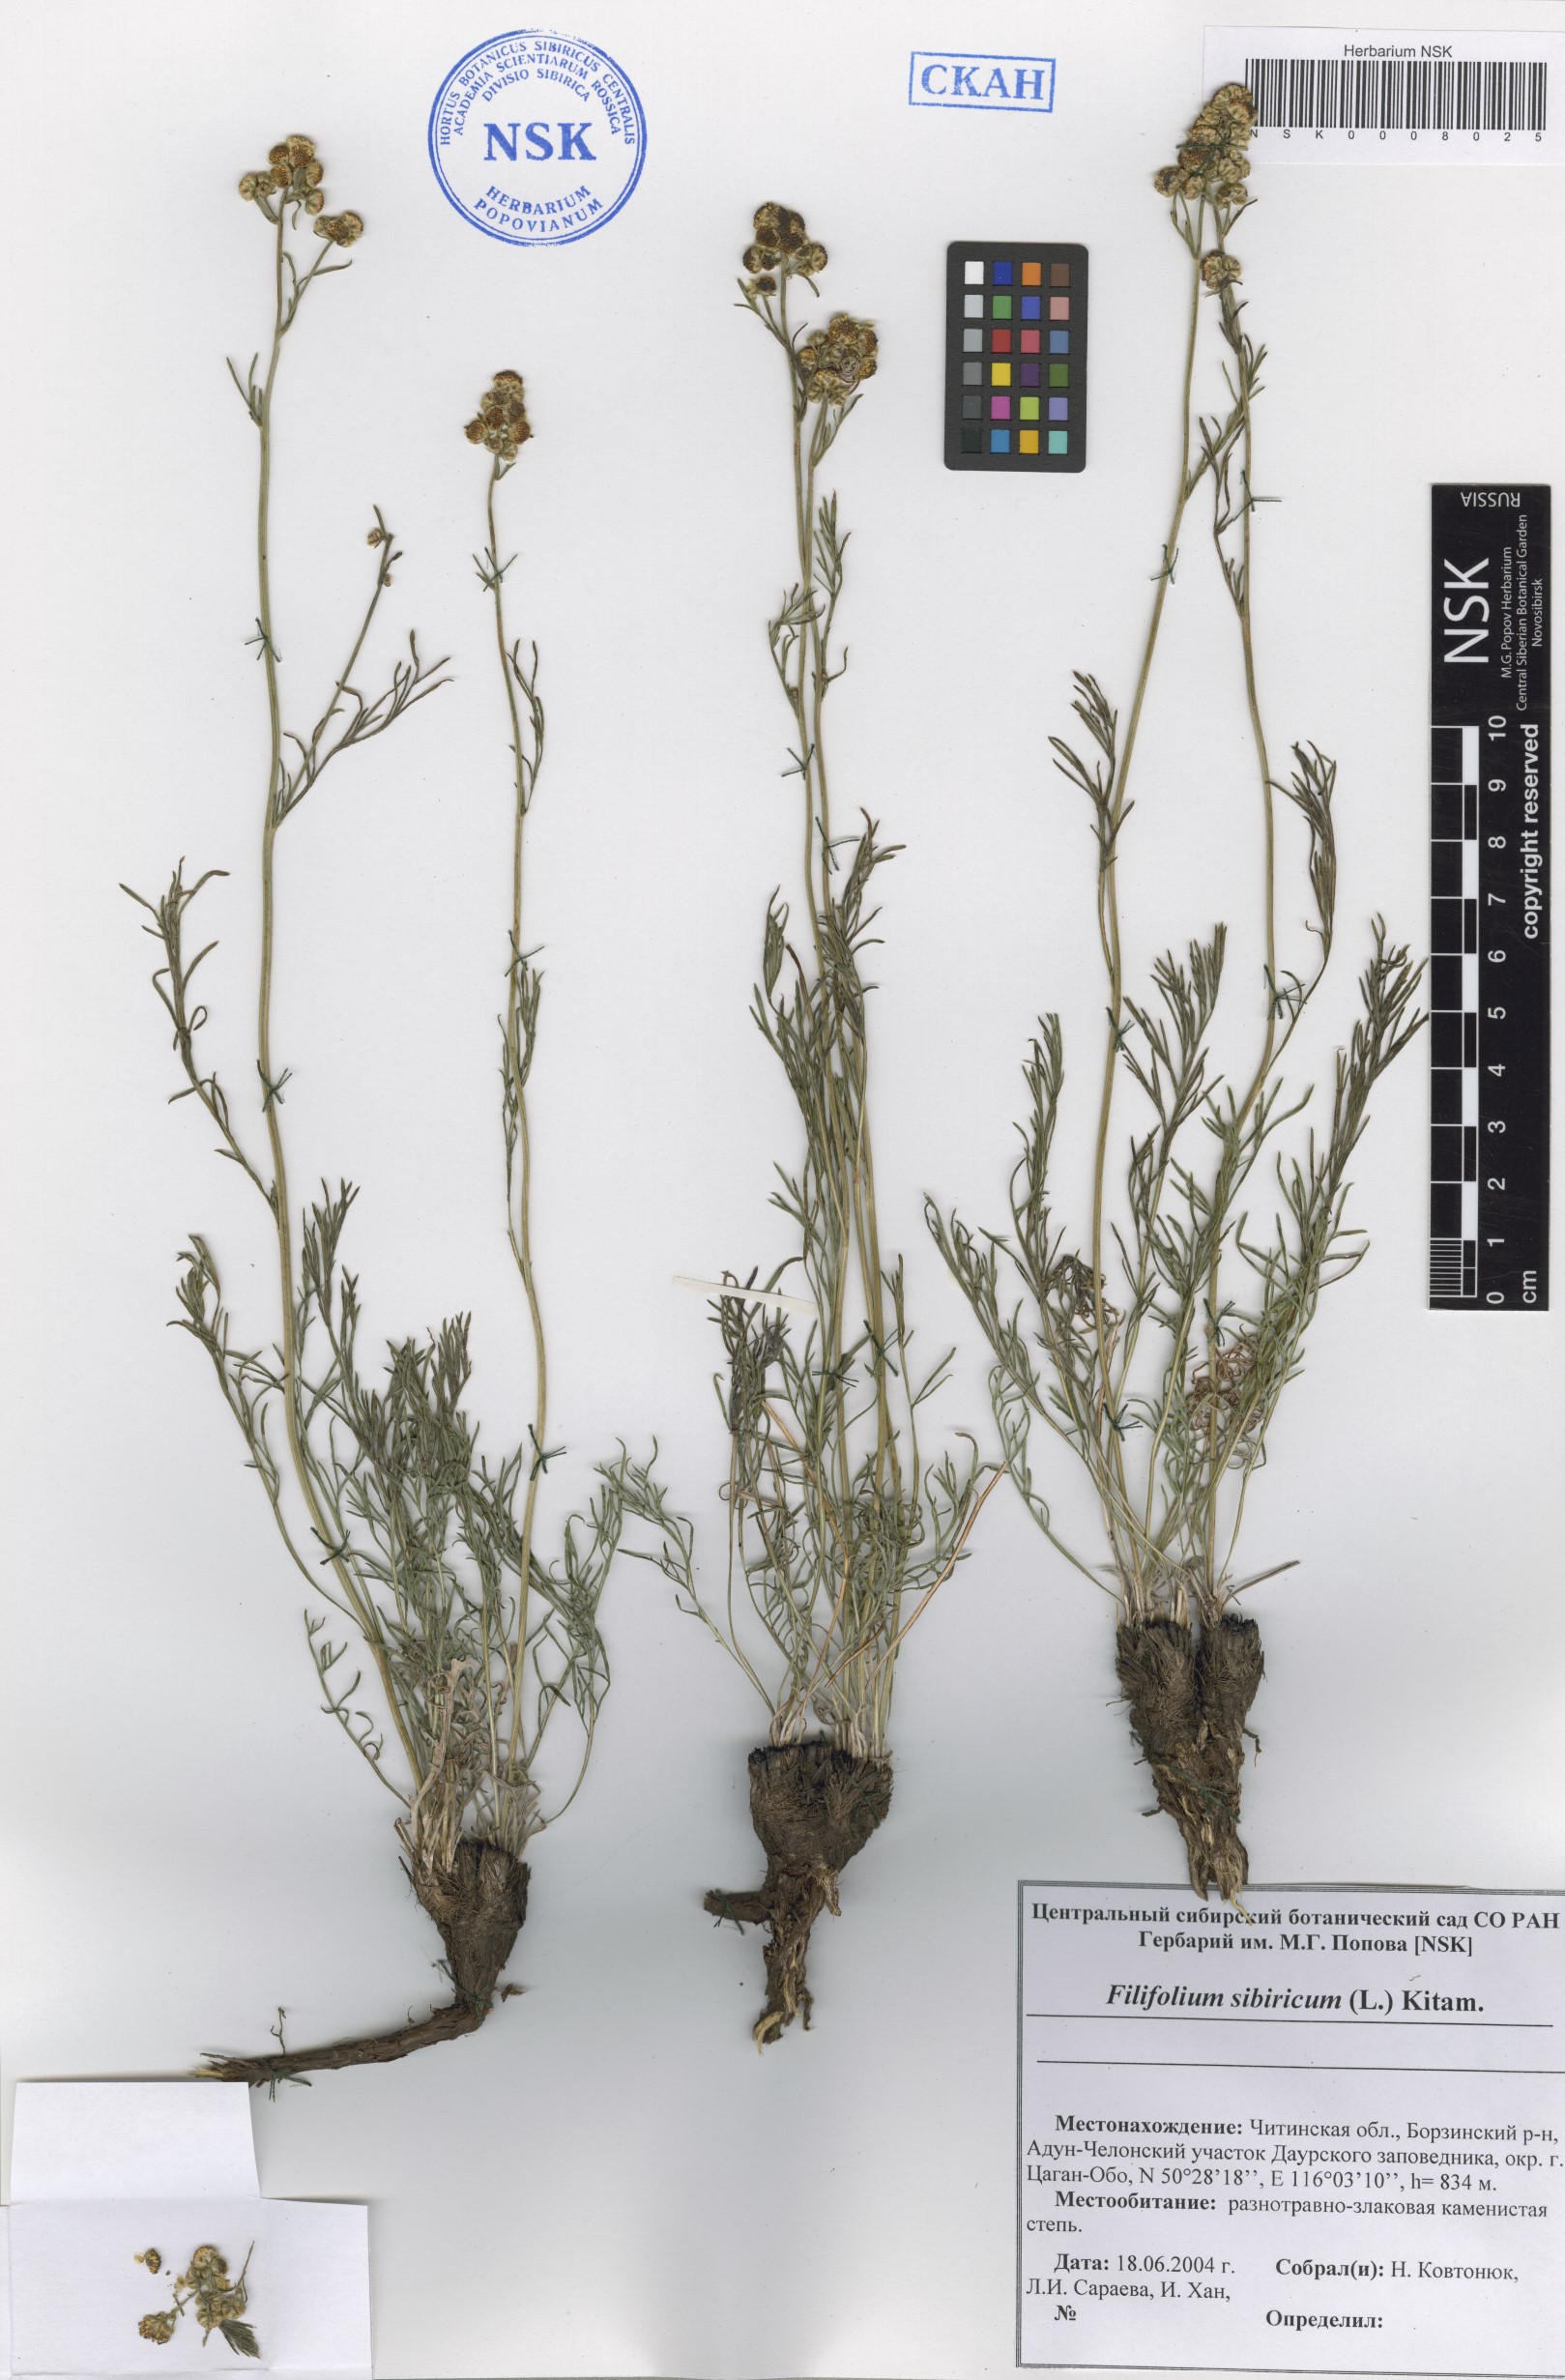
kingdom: Plantae
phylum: Tracheophyta
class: Magnoliopsida
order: Asterales
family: Asteraceae
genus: Filifolium
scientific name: Filifolium sibiricum
